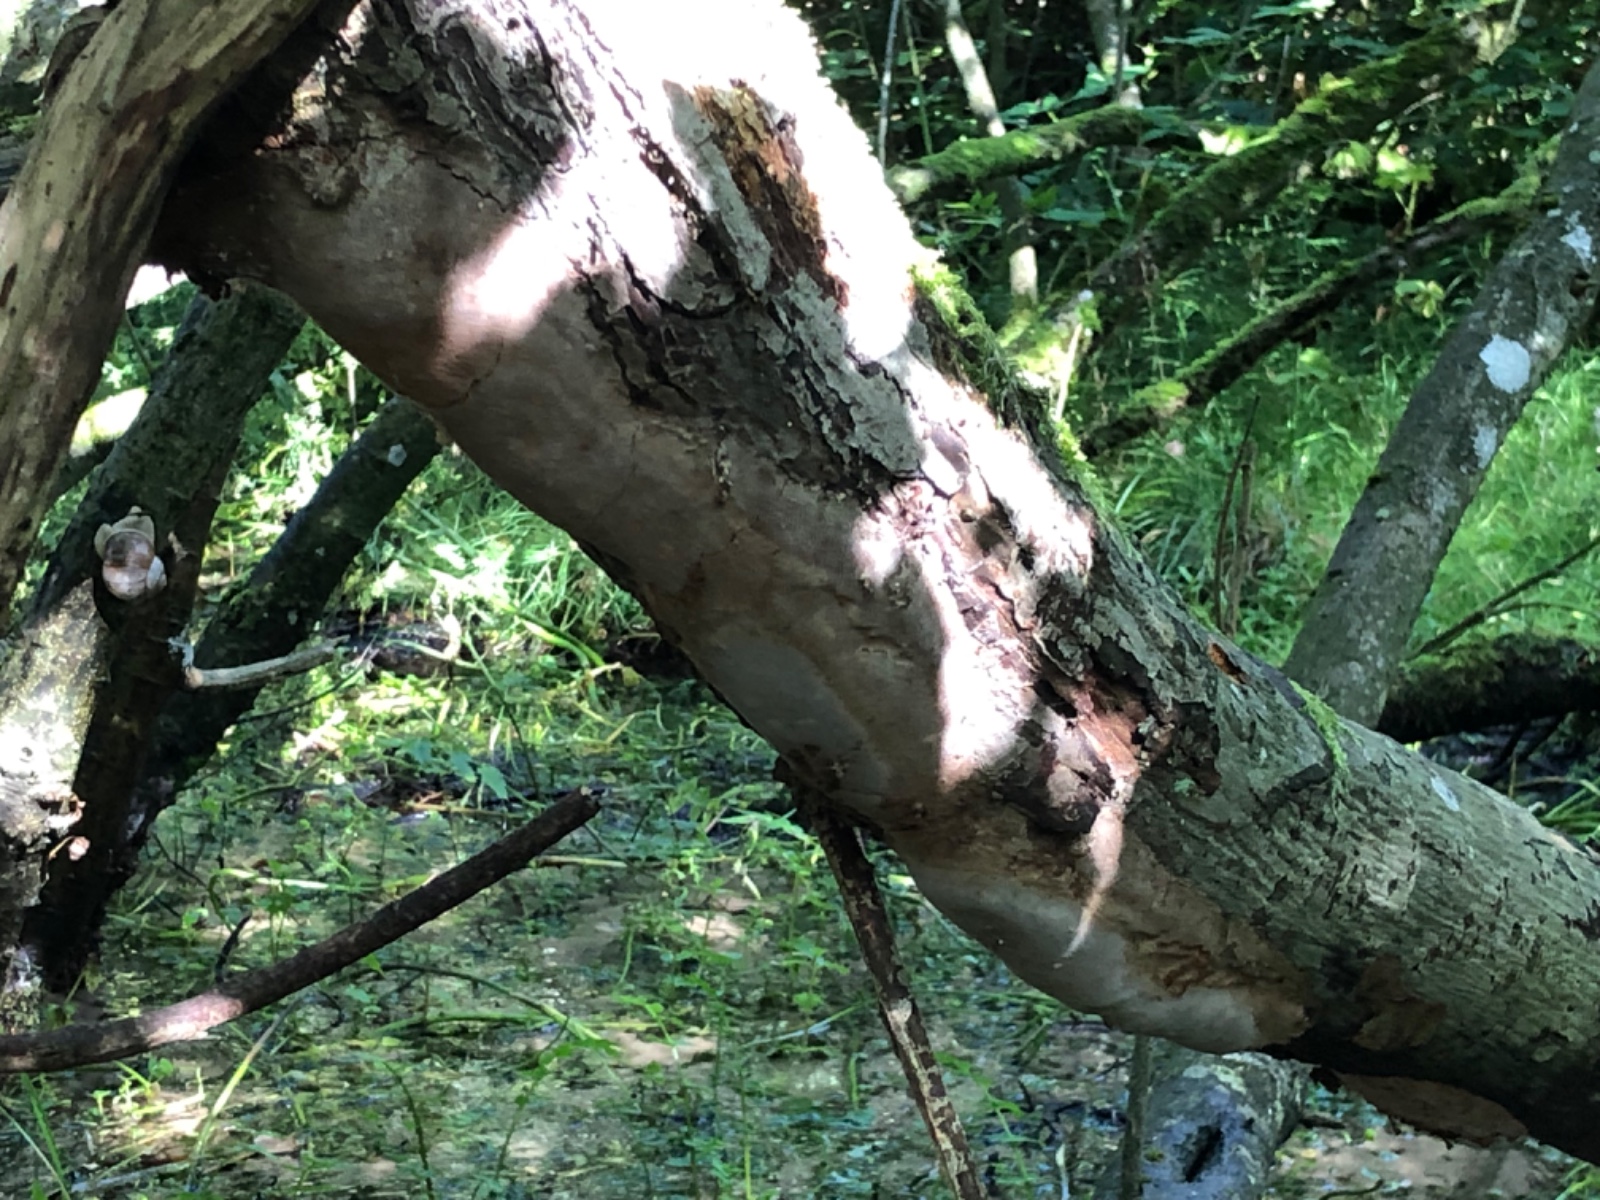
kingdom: Fungi
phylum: Basidiomycota
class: Agaricomycetes
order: Hymenochaetales
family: Hymenochaetaceae
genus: Fomitiporia
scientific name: Fomitiporia punctata
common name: pude-ildporesvamp
